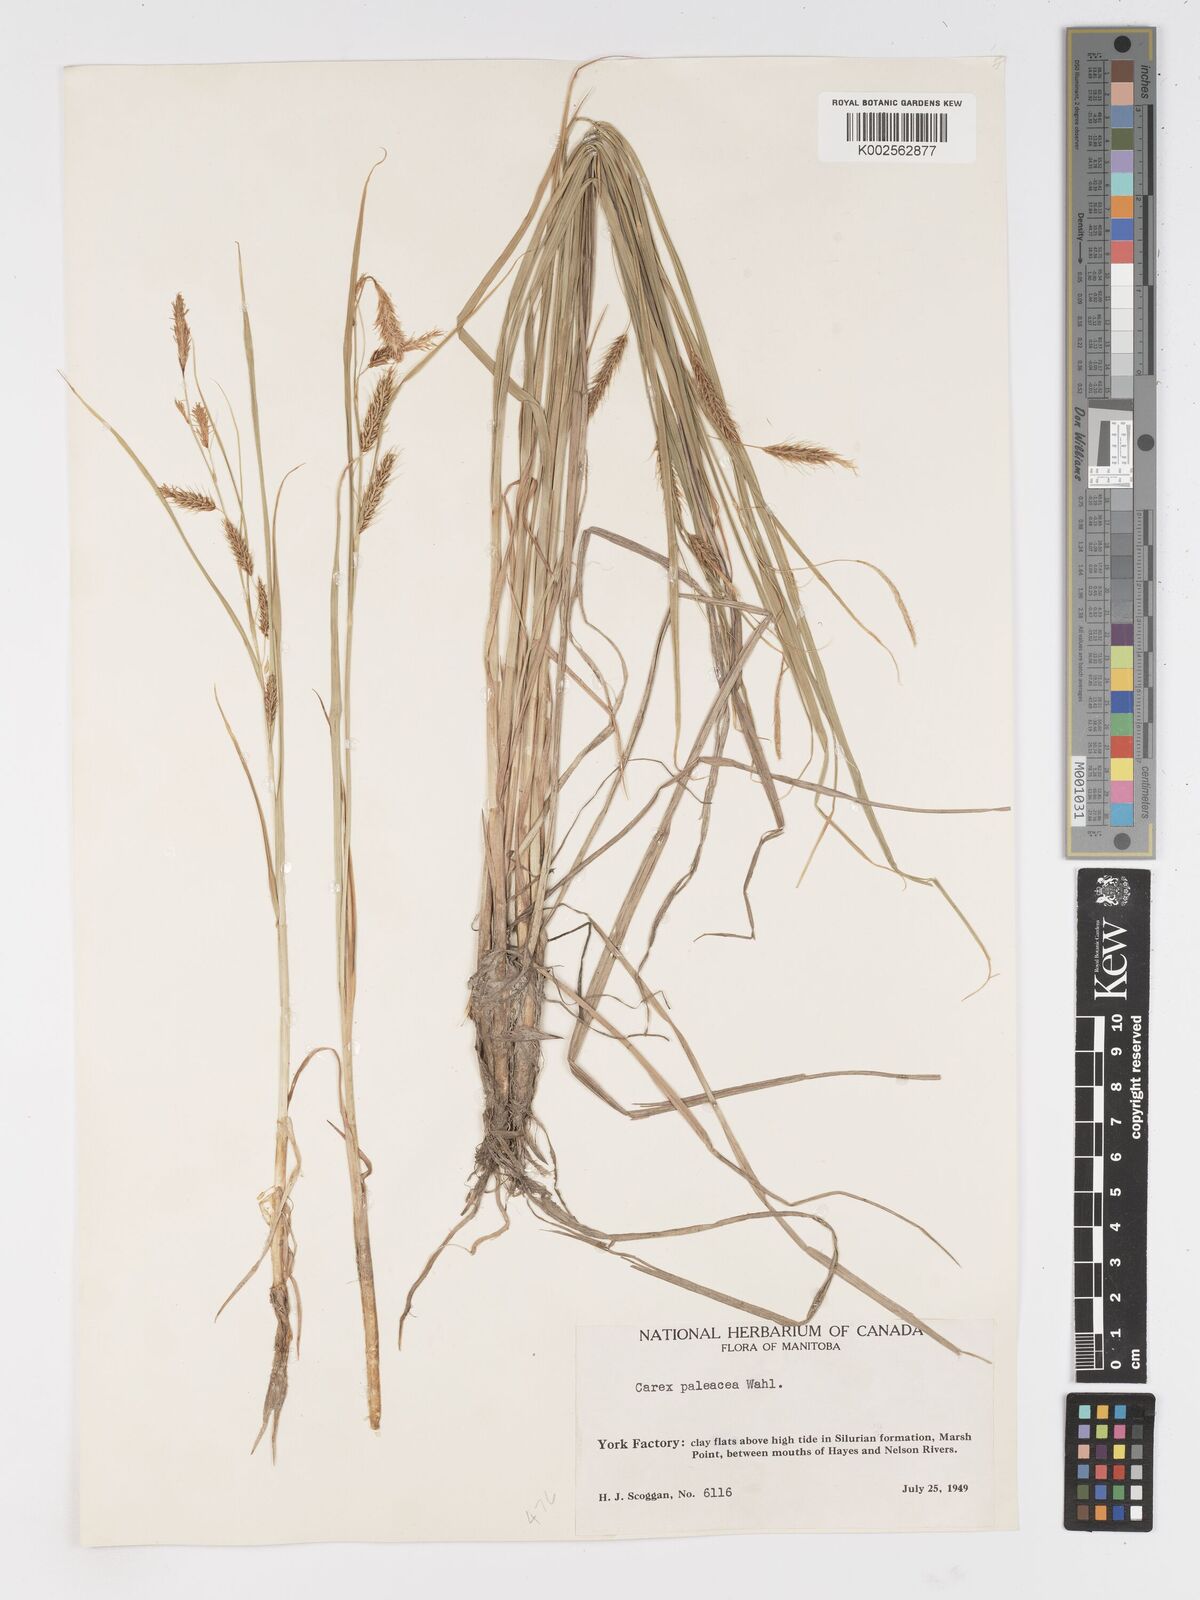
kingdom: Plantae
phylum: Tracheophyta
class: Liliopsida
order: Poales
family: Cyperaceae
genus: Carex
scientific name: Carex paleacea
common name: Chaffy sedge
